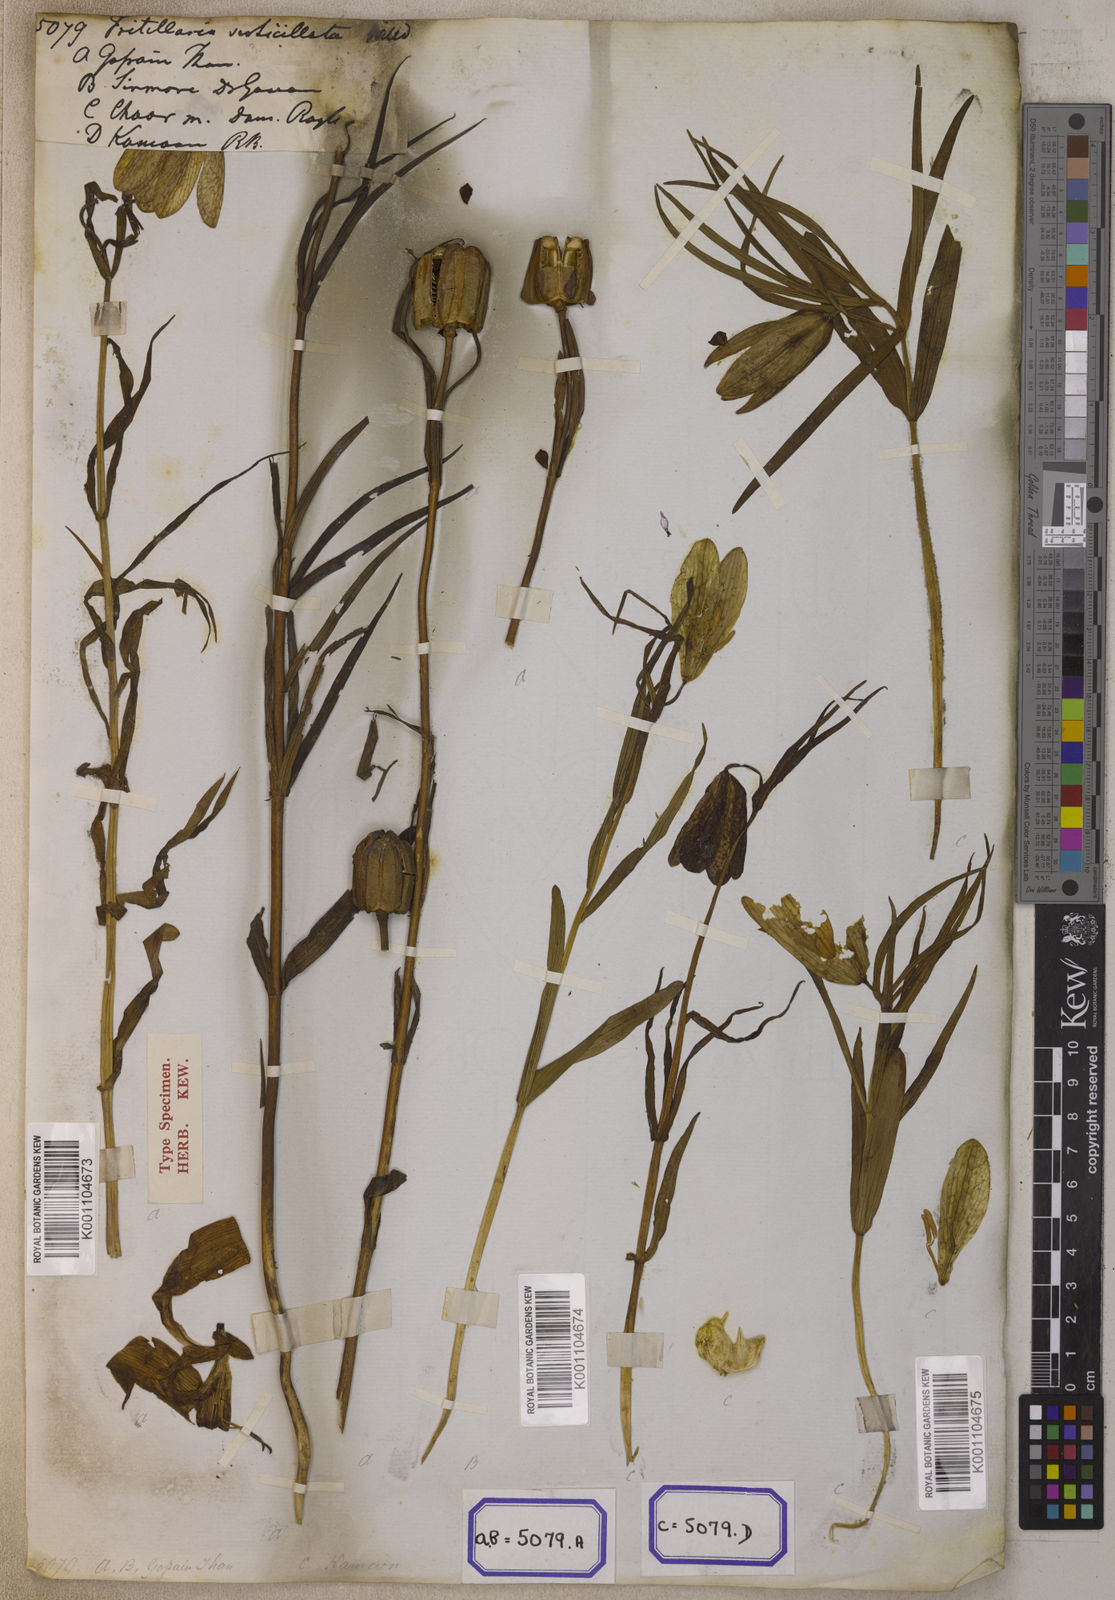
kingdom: Plantae
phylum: Tracheophyta
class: Liliopsida
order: Liliales
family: Liliaceae
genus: Fritillaria
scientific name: Fritillaria
